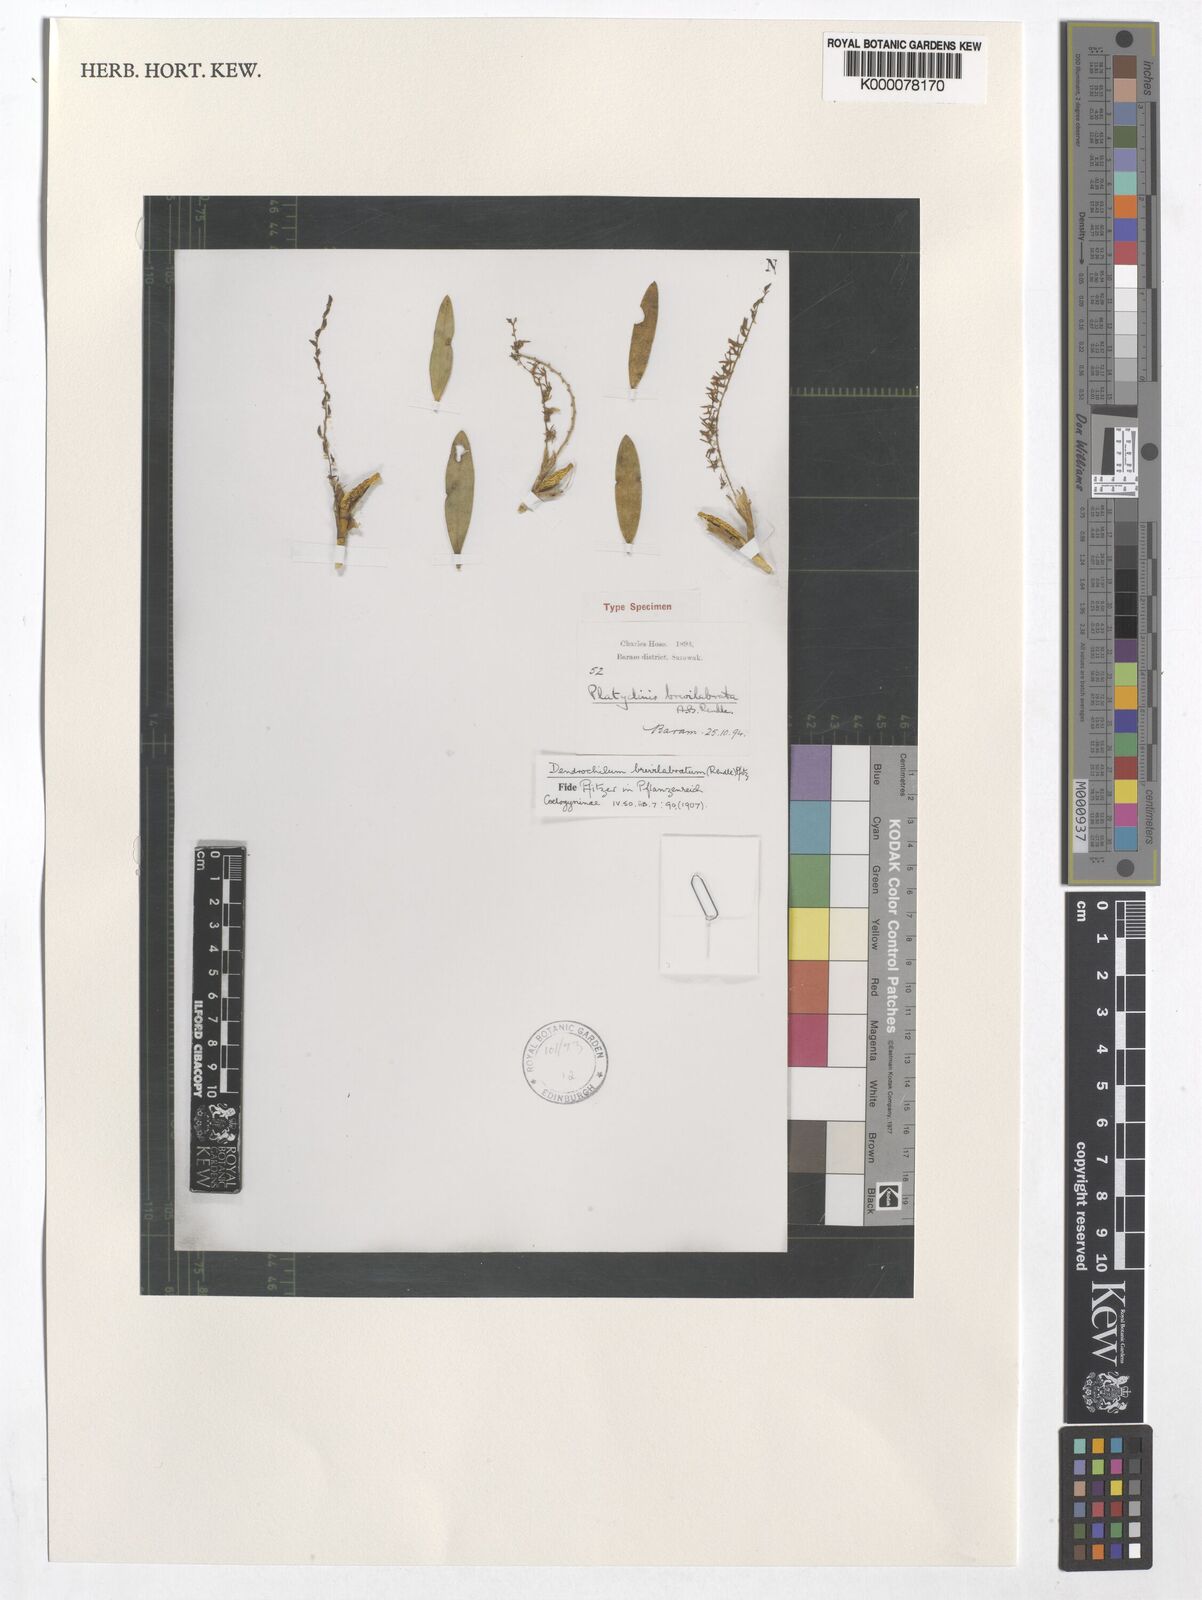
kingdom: Plantae
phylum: Tracheophyta
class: Liliopsida
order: Asparagales
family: Orchidaceae
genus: Coelogyne
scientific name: Coelogyne pallidiflavens
